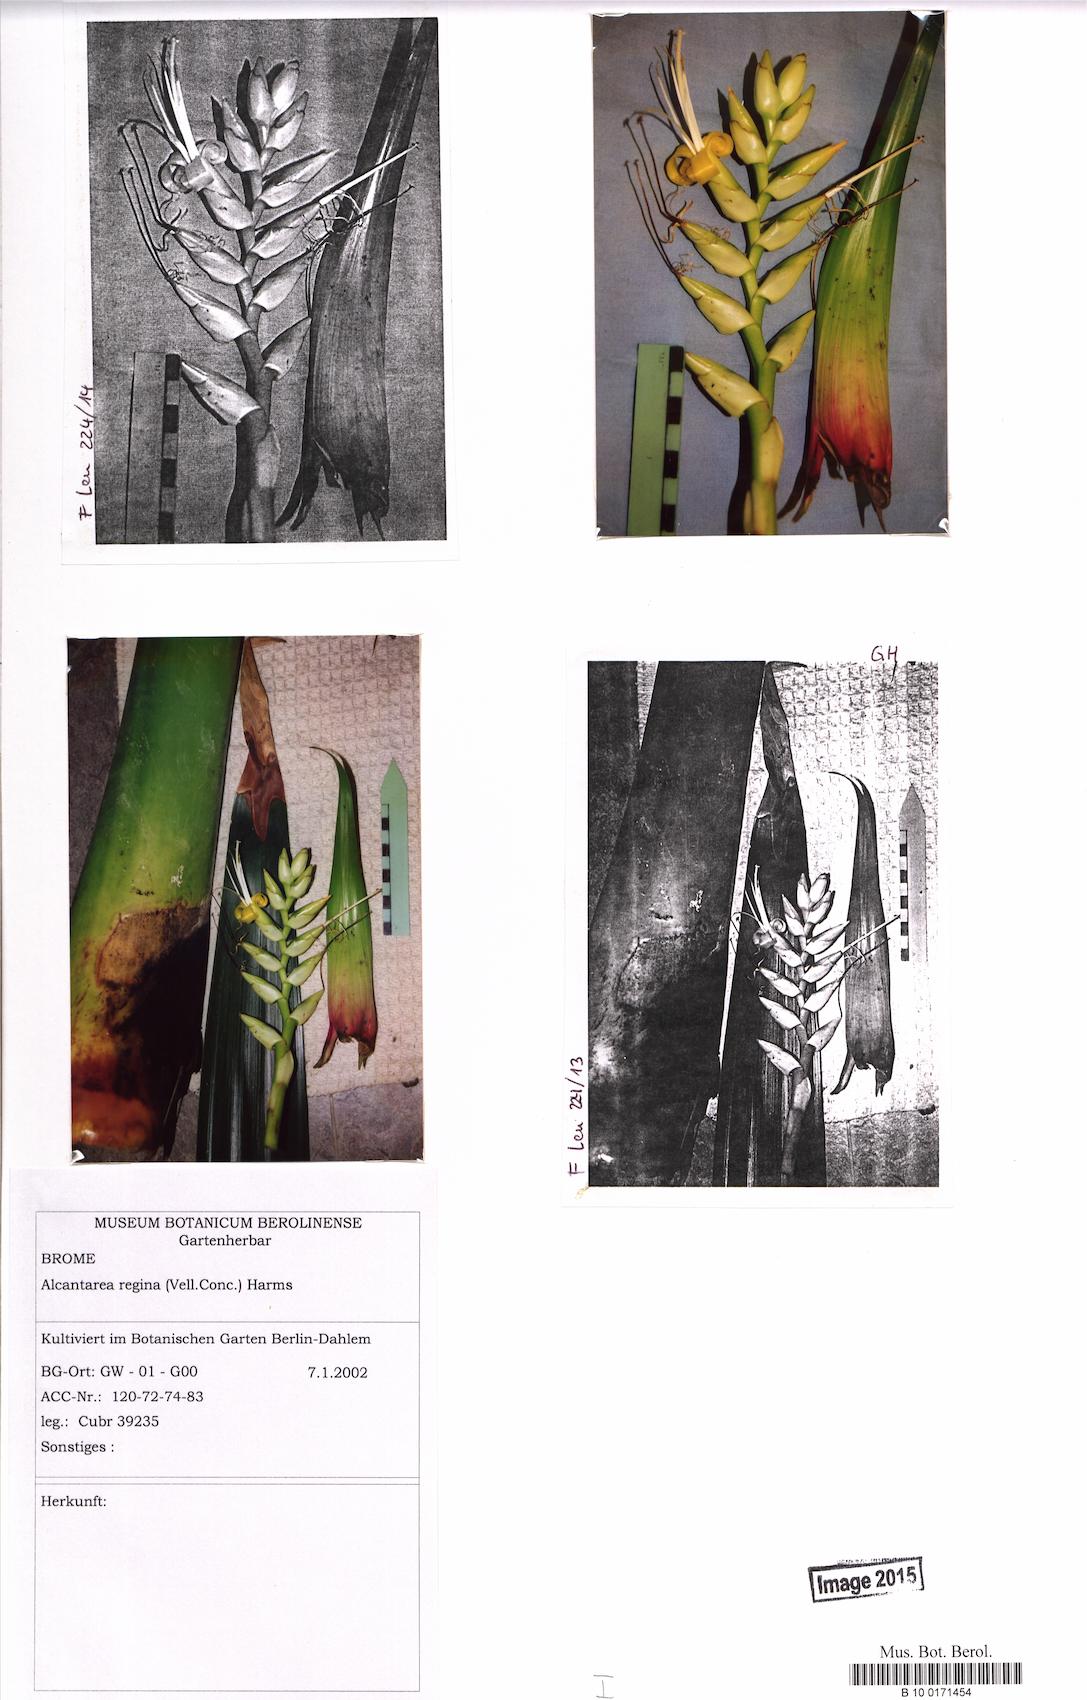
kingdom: Plantae
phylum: Tracheophyta
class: Liliopsida
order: Poales
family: Bromeliaceae
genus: Alcantarea
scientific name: Alcantarea regina
